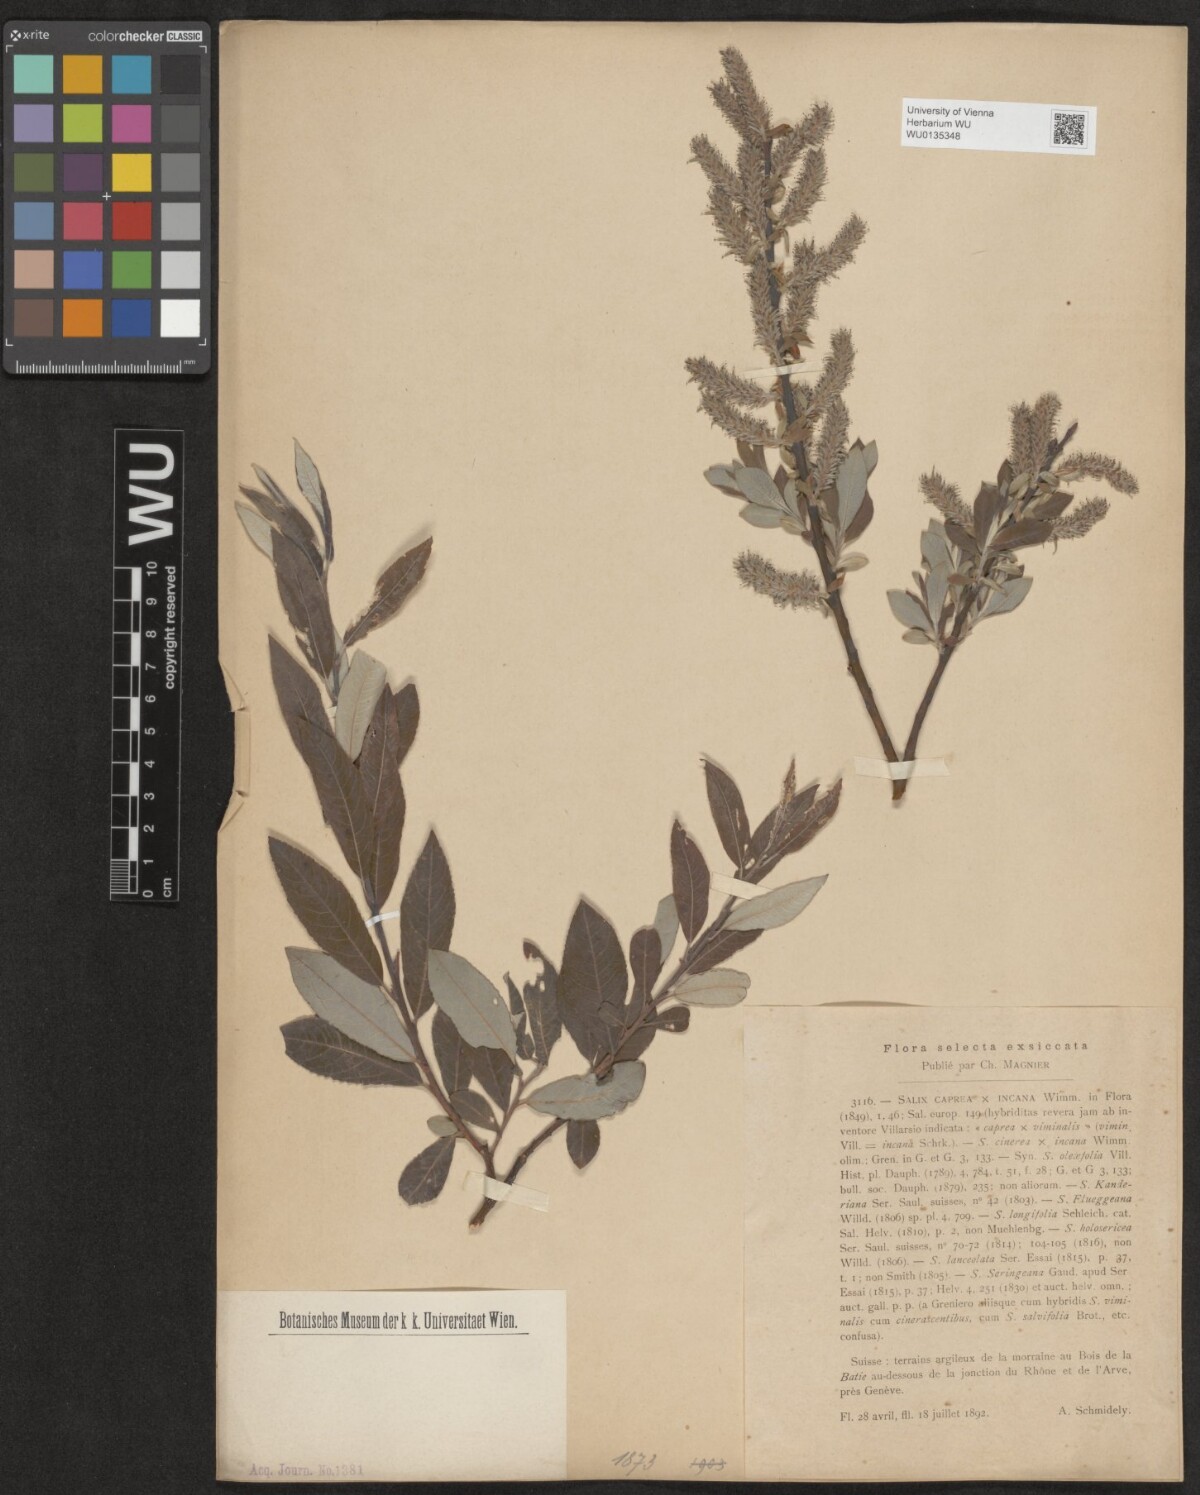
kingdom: Plantae
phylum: Tracheophyta
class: Magnoliopsida
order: Malpighiales
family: Salicaceae
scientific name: Salicaceae
